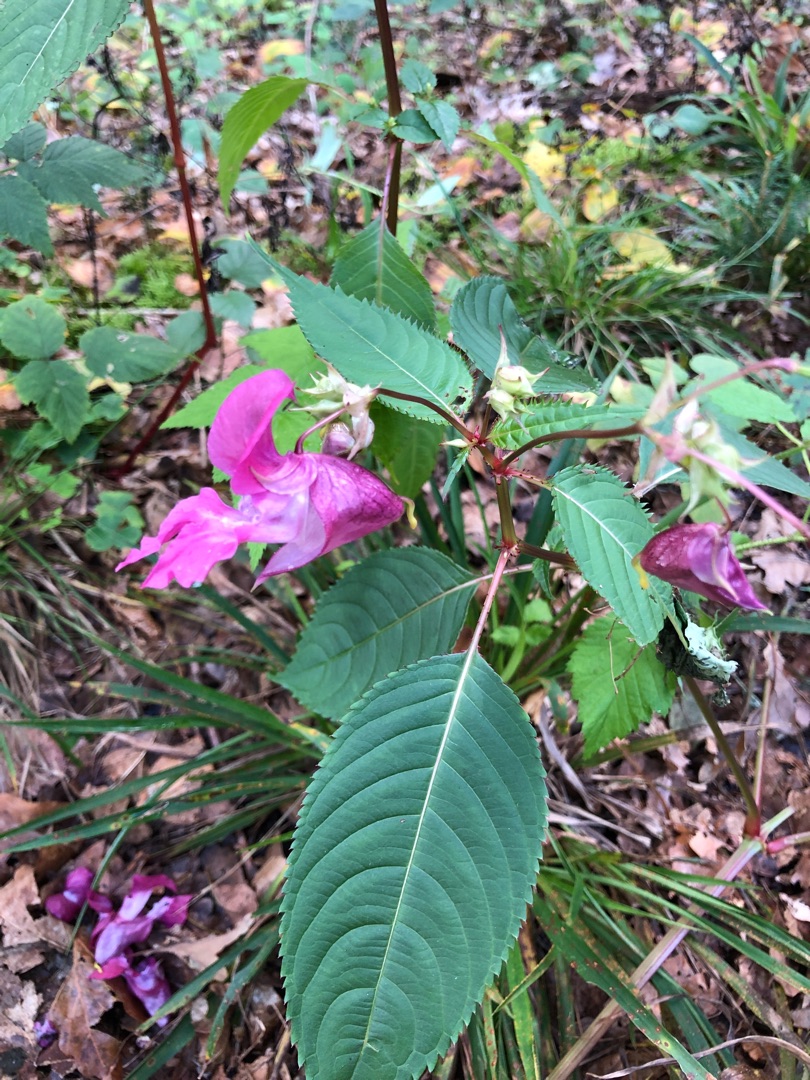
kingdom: Plantae
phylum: Tracheophyta
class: Magnoliopsida
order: Ericales
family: Balsaminaceae
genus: Impatiens
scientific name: Impatiens glandulifera
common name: Kæmpe-balsamin
